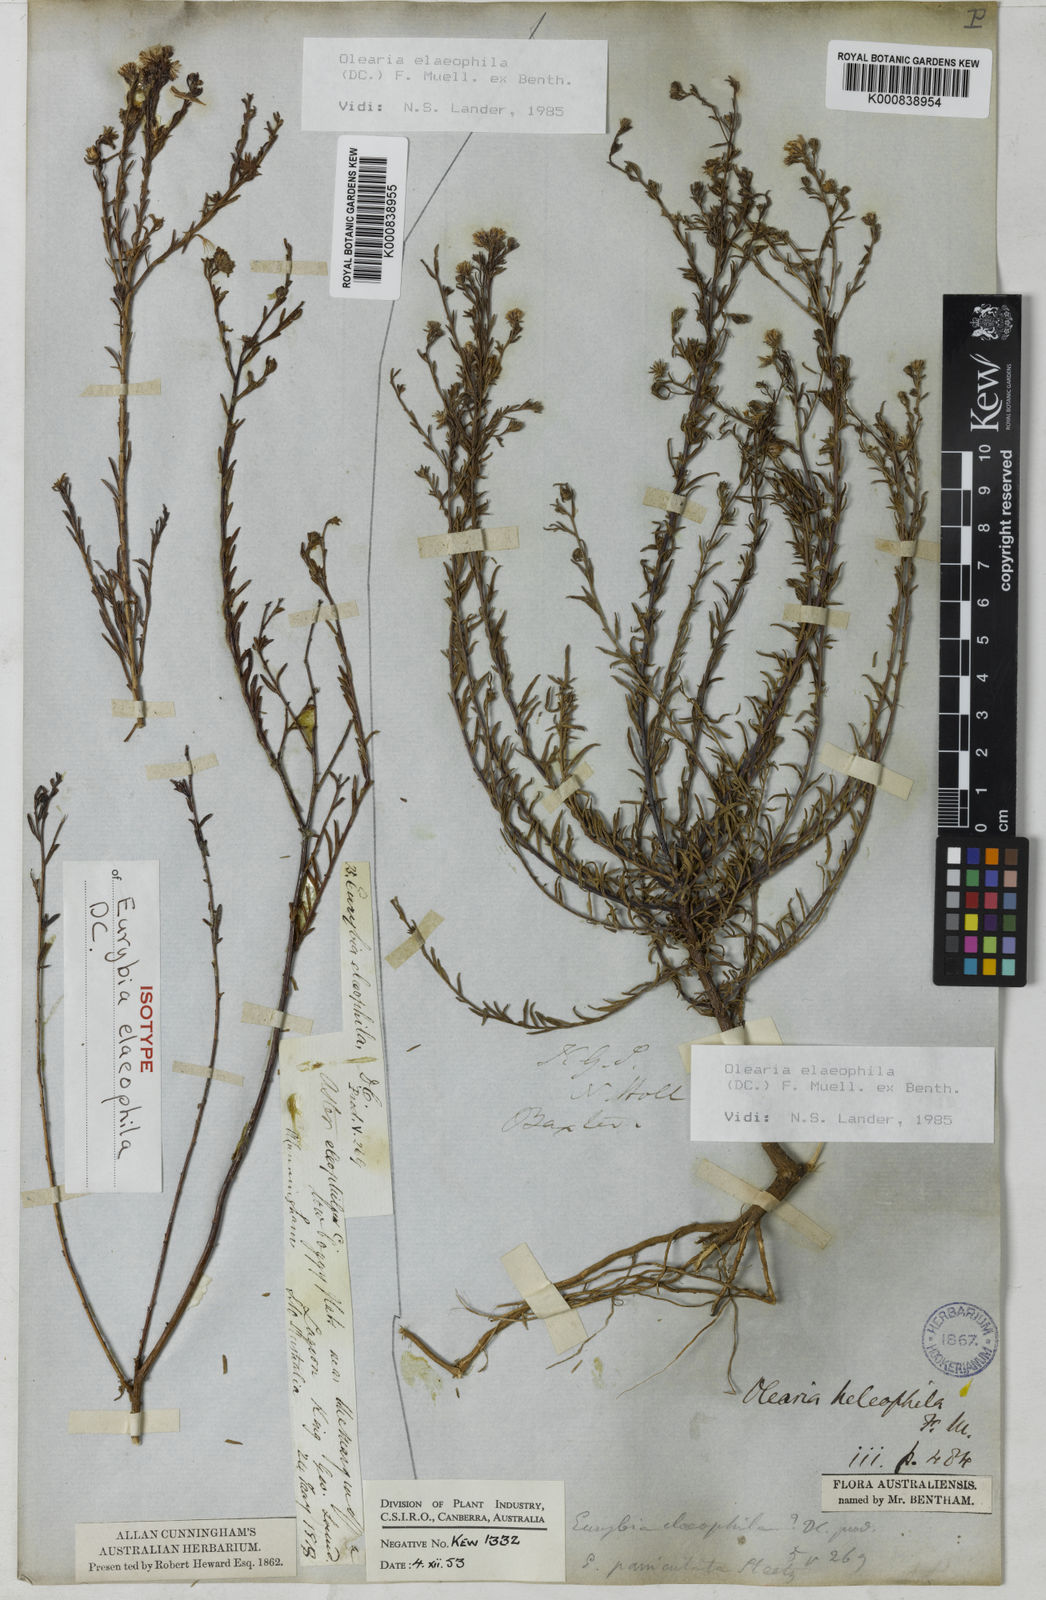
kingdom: Plantae
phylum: Tracheophyta
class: Magnoliopsida
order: Asterales
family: Asteraceae
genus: Olearia
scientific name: Olearia elaeophila
